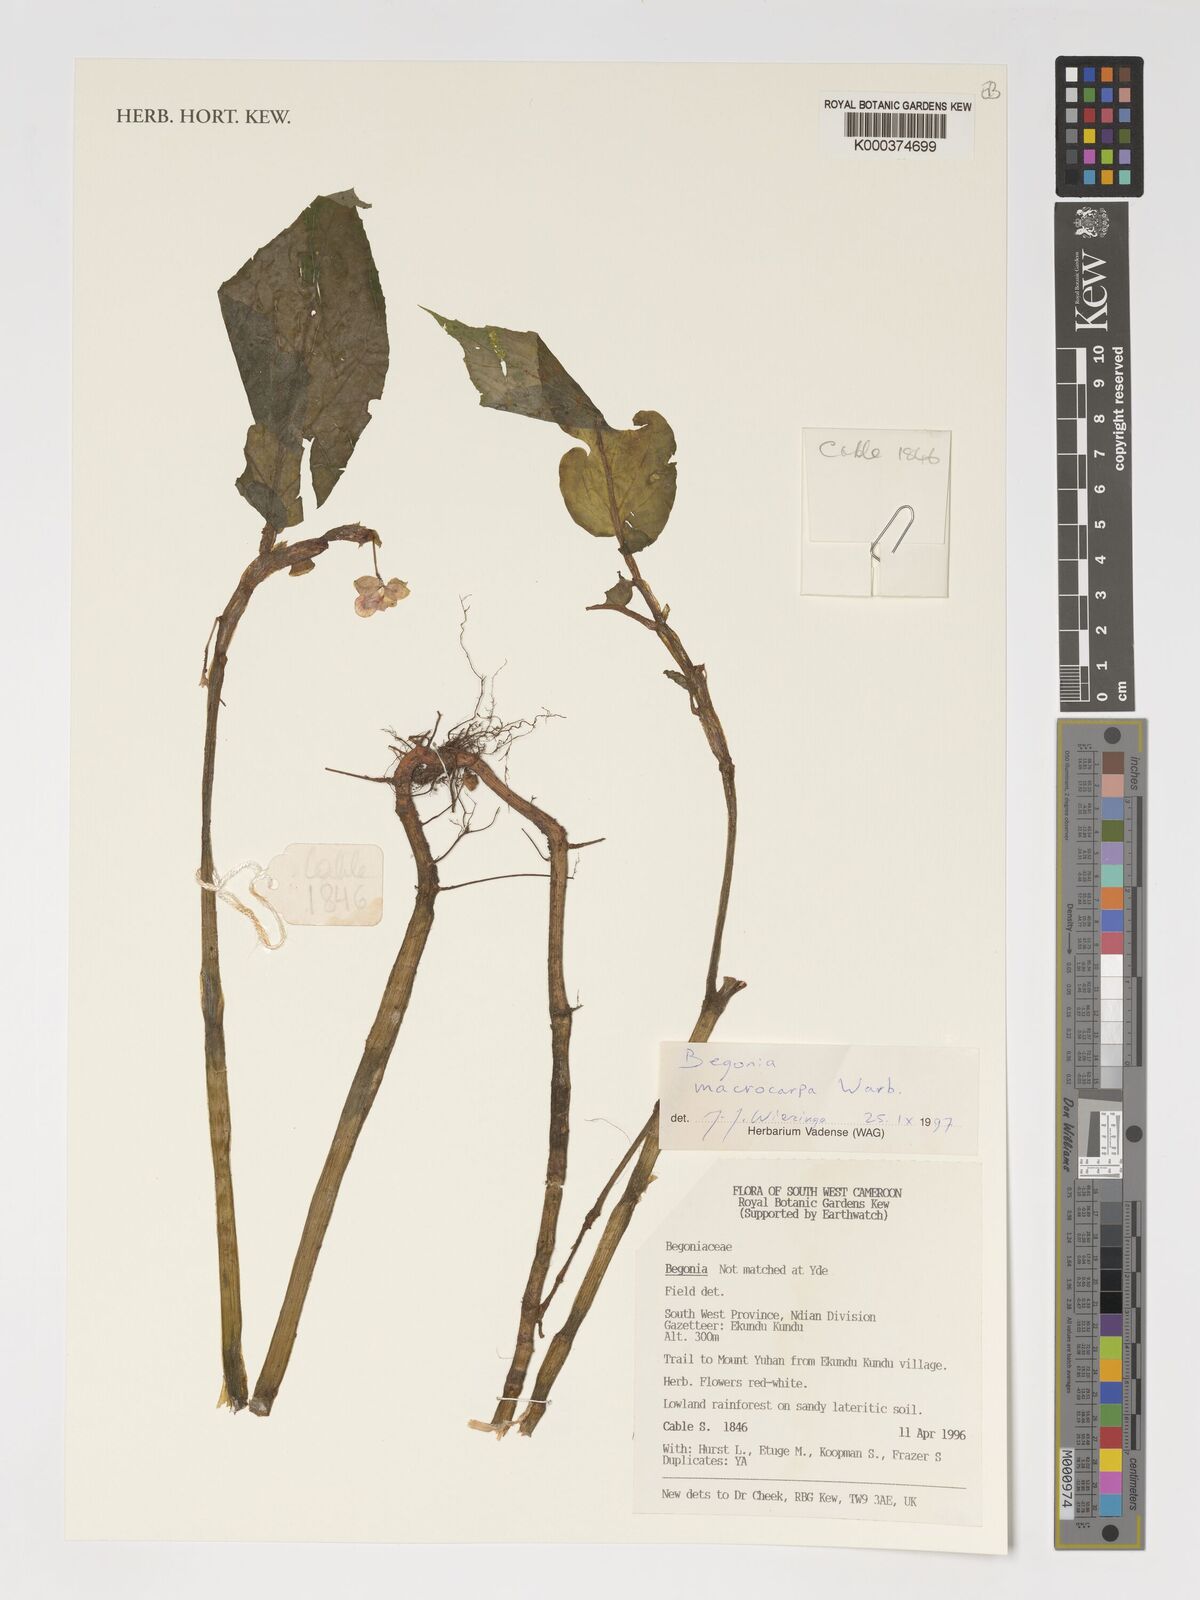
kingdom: Plantae
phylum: Tracheophyta
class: Magnoliopsida
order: Cucurbitales
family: Begoniaceae
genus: Begonia
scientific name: Begonia macrocarpa
